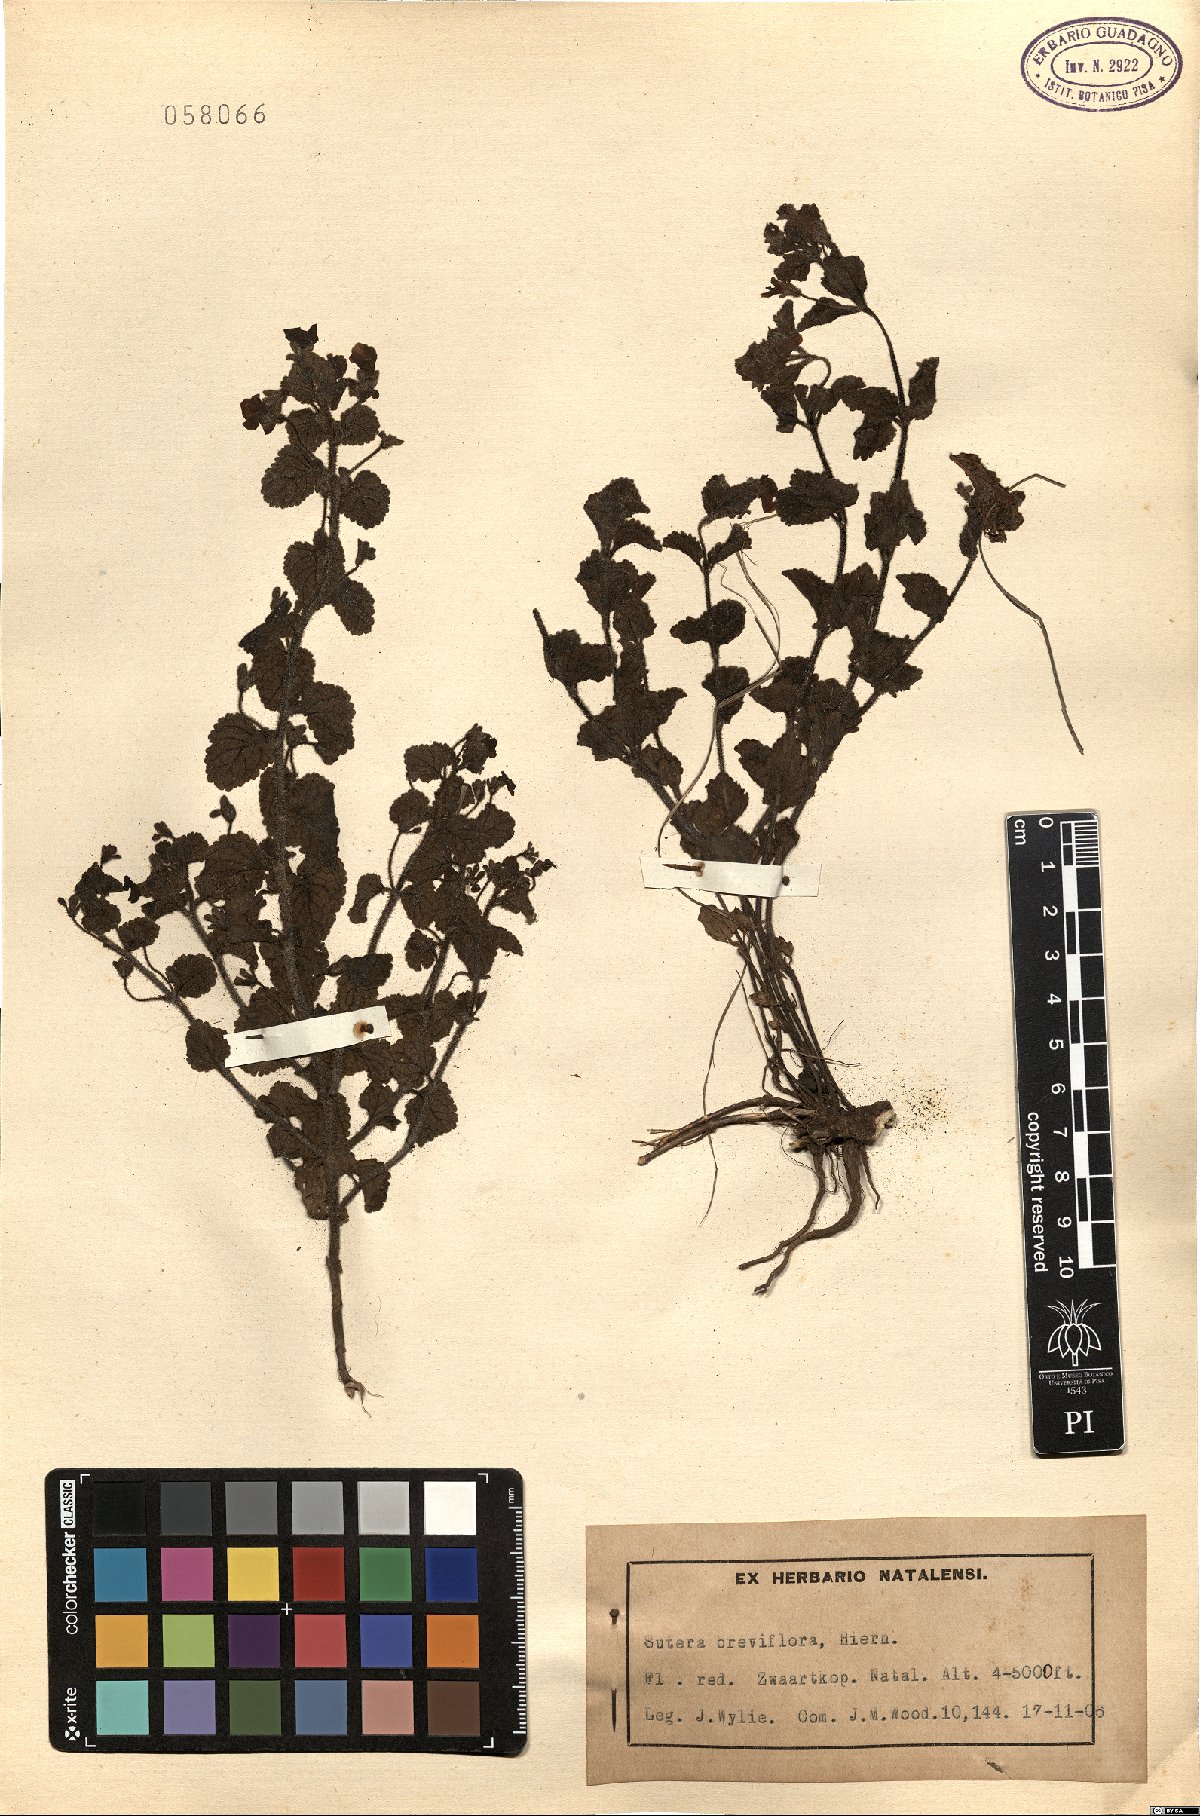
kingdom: Plantae
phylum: Tracheophyta
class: Magnoliopsida
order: Lamiales
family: Scrophulariaceae
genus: Jamesbrittenia
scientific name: Jamesbrittenia breviflora
